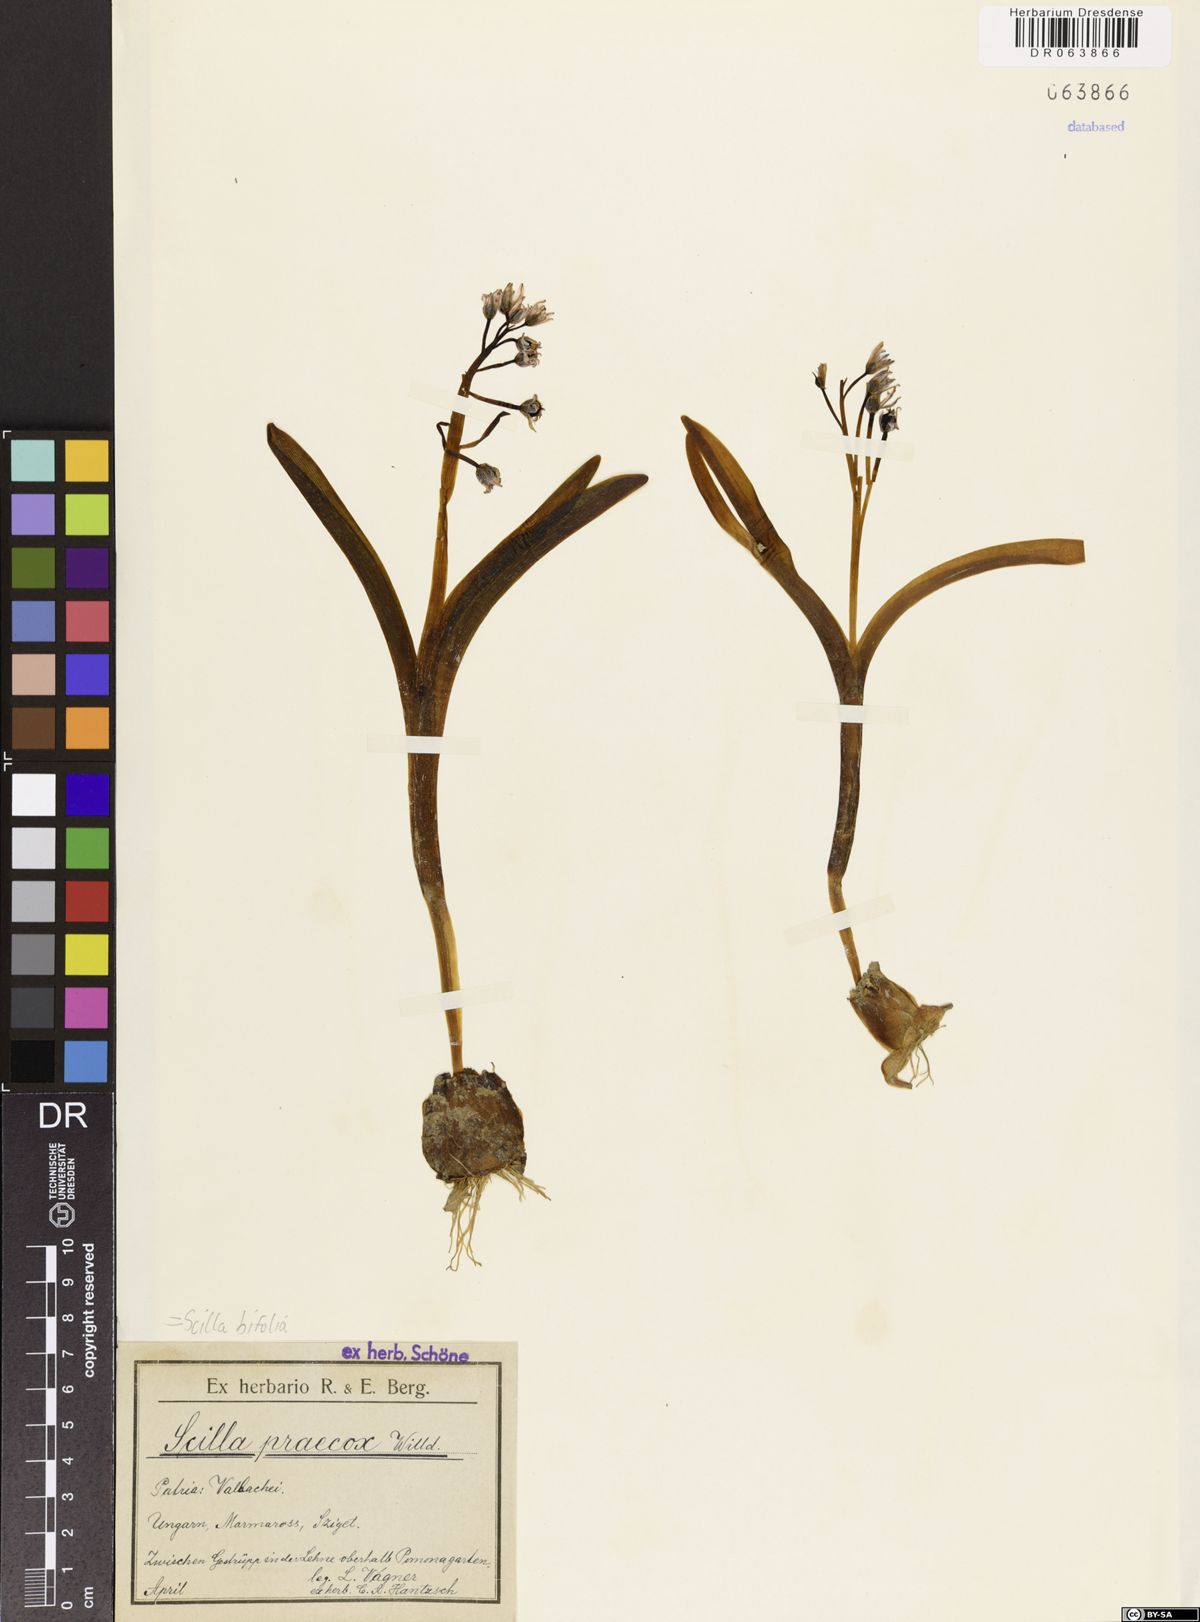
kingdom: Plantae
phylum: Tracheophyta
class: Liliopsida
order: Asparagales
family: Asparagaceae
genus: Scilla
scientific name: Scilla bifolia
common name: Alpine squill
